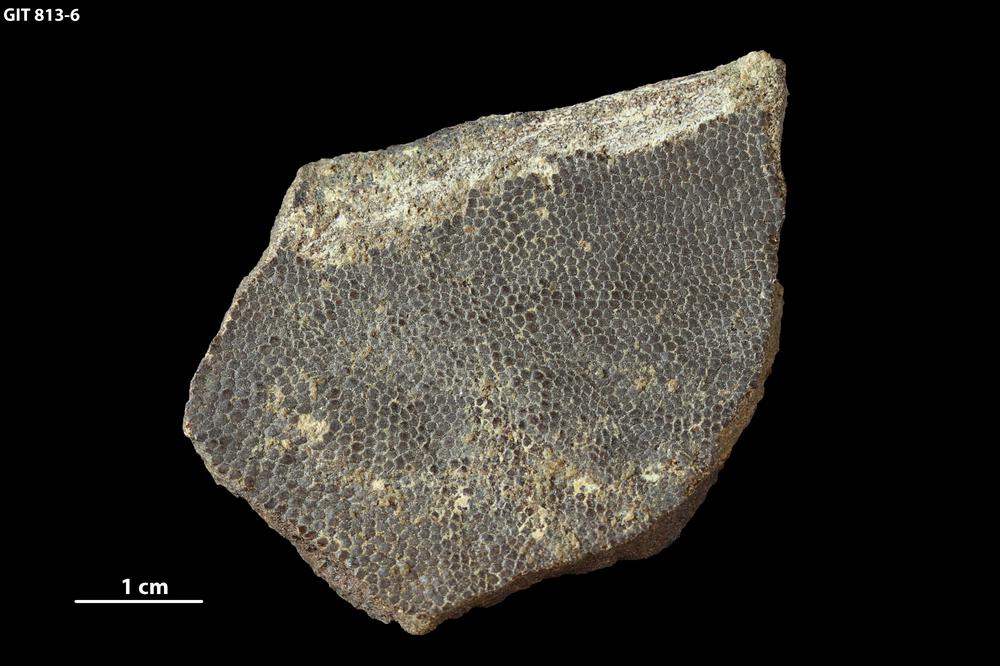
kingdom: Animalia
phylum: Chordata
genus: Schizosteus
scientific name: Schizosteus
